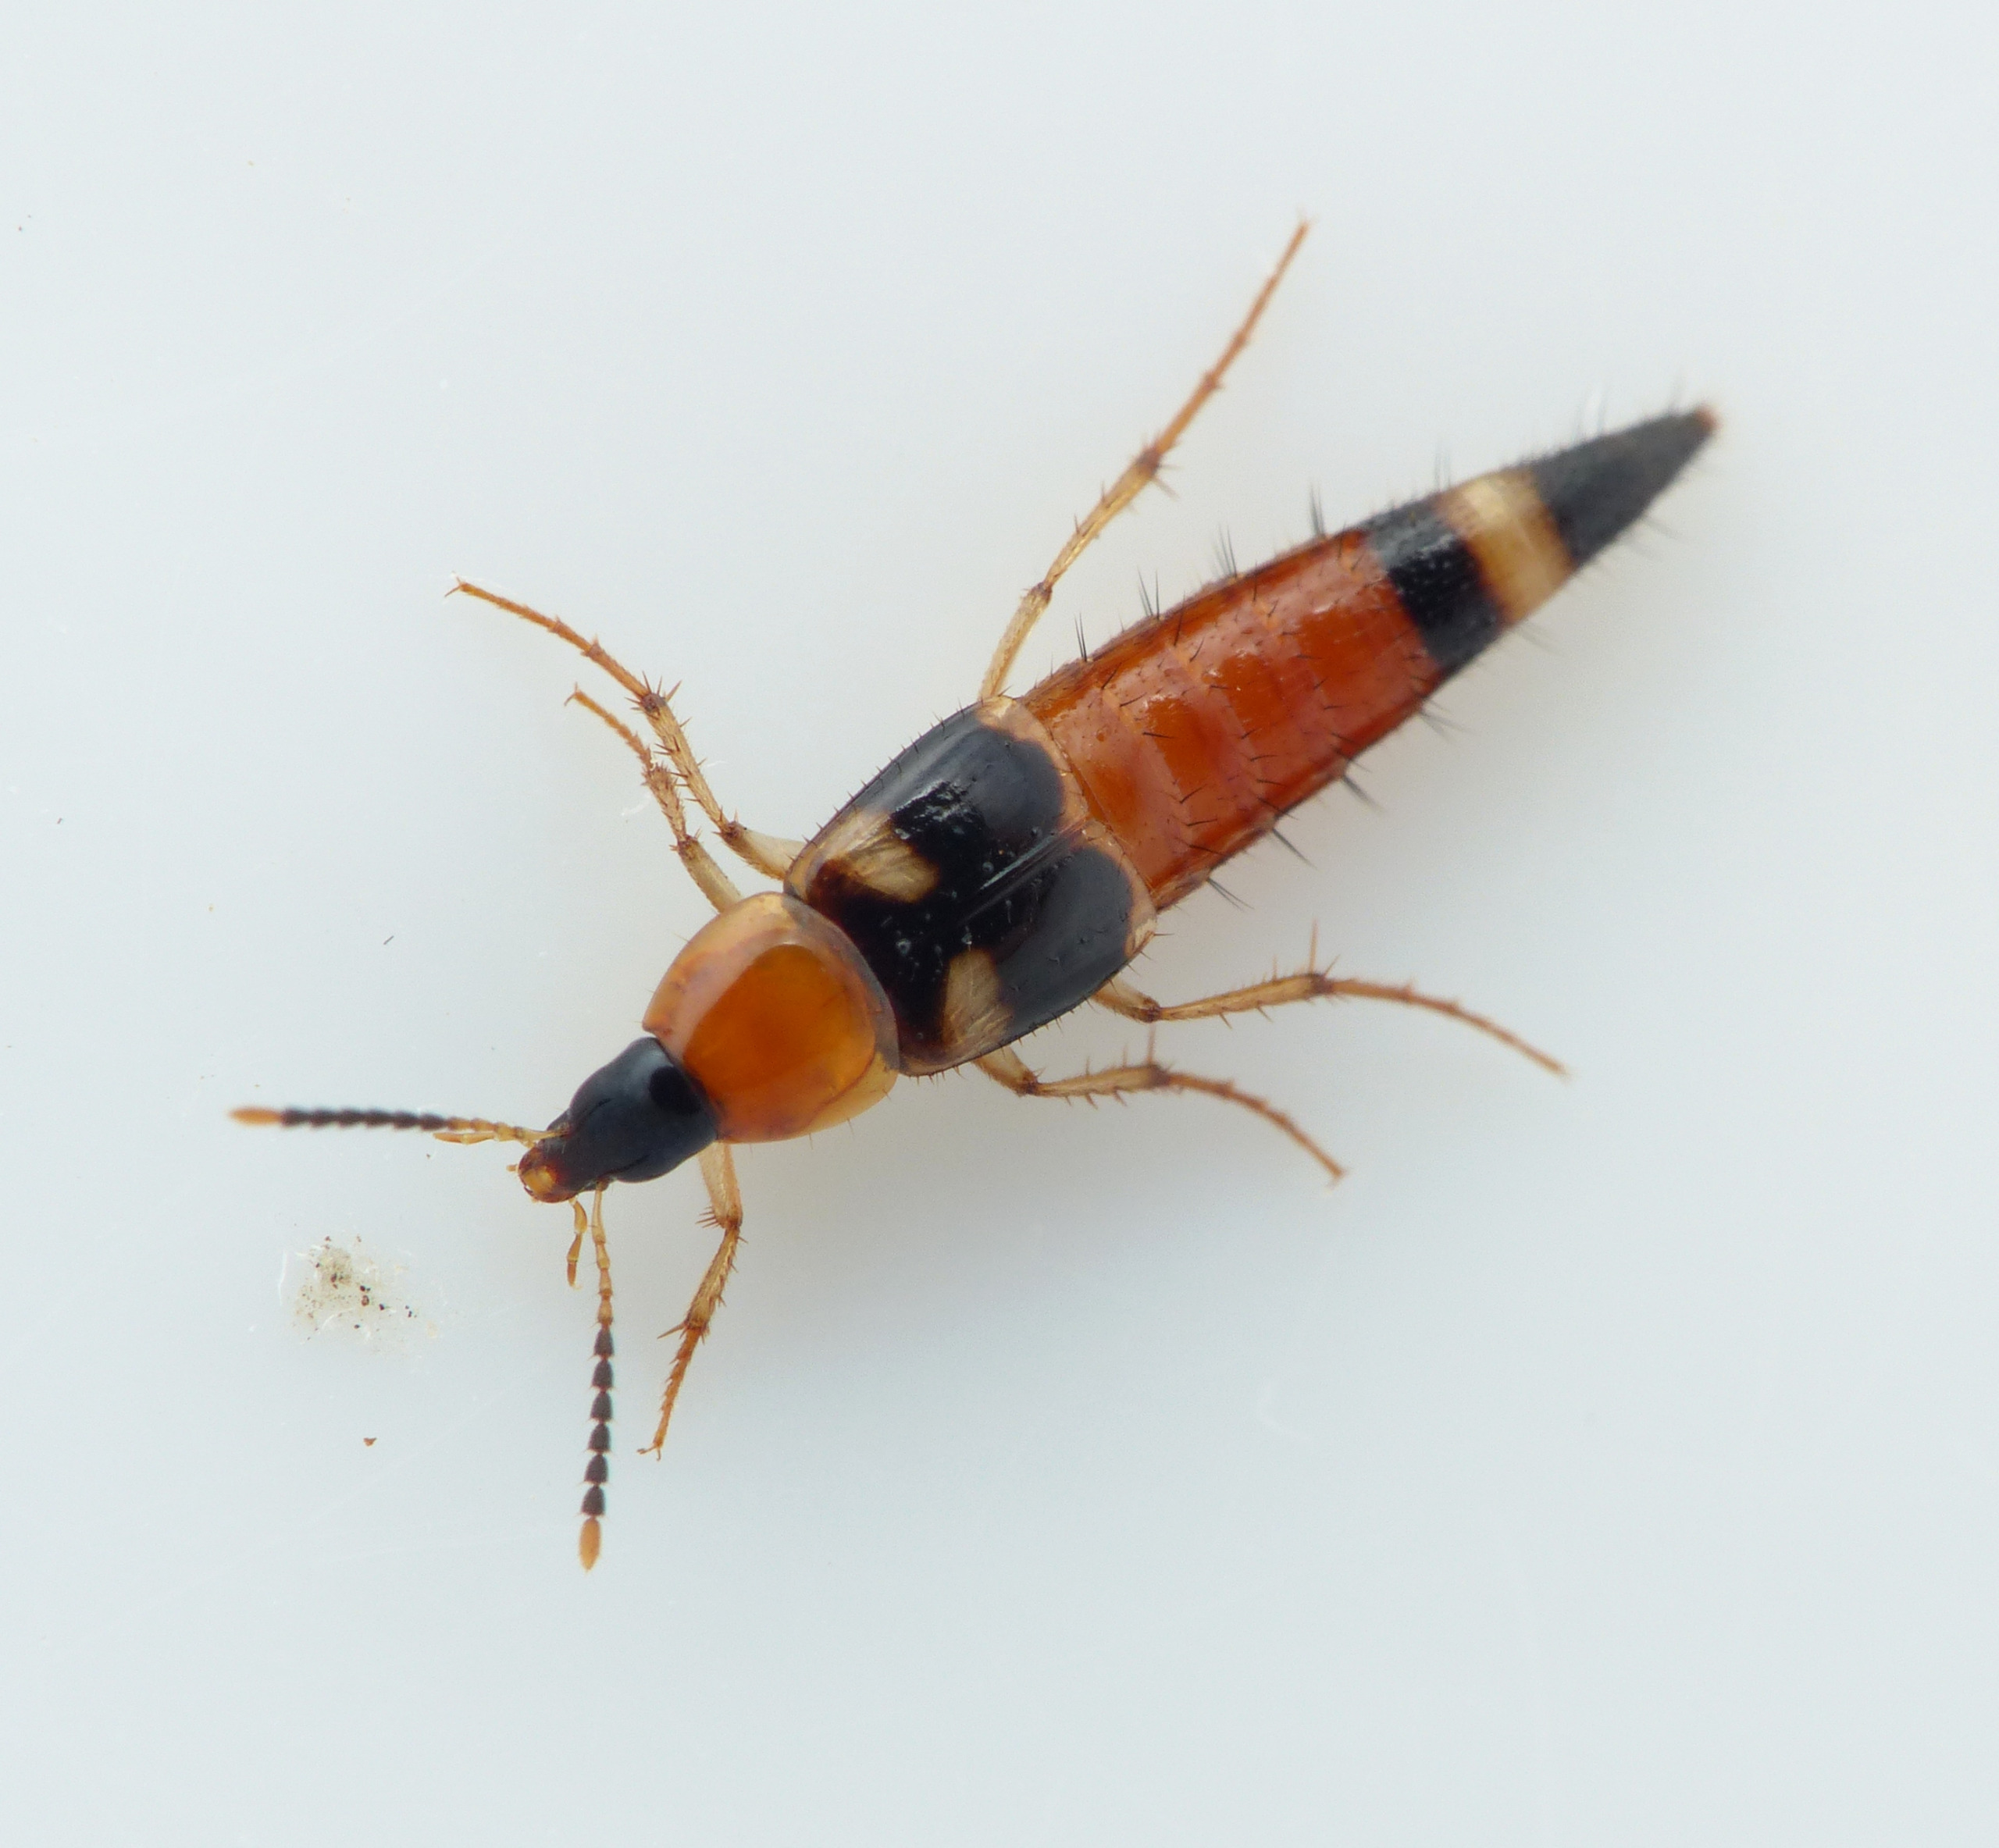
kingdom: Animalia
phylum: Arthropoda
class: Insecta
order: Coleoptera
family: Staphylinidae
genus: Bobitobus
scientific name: Bobitobus lunulatus
